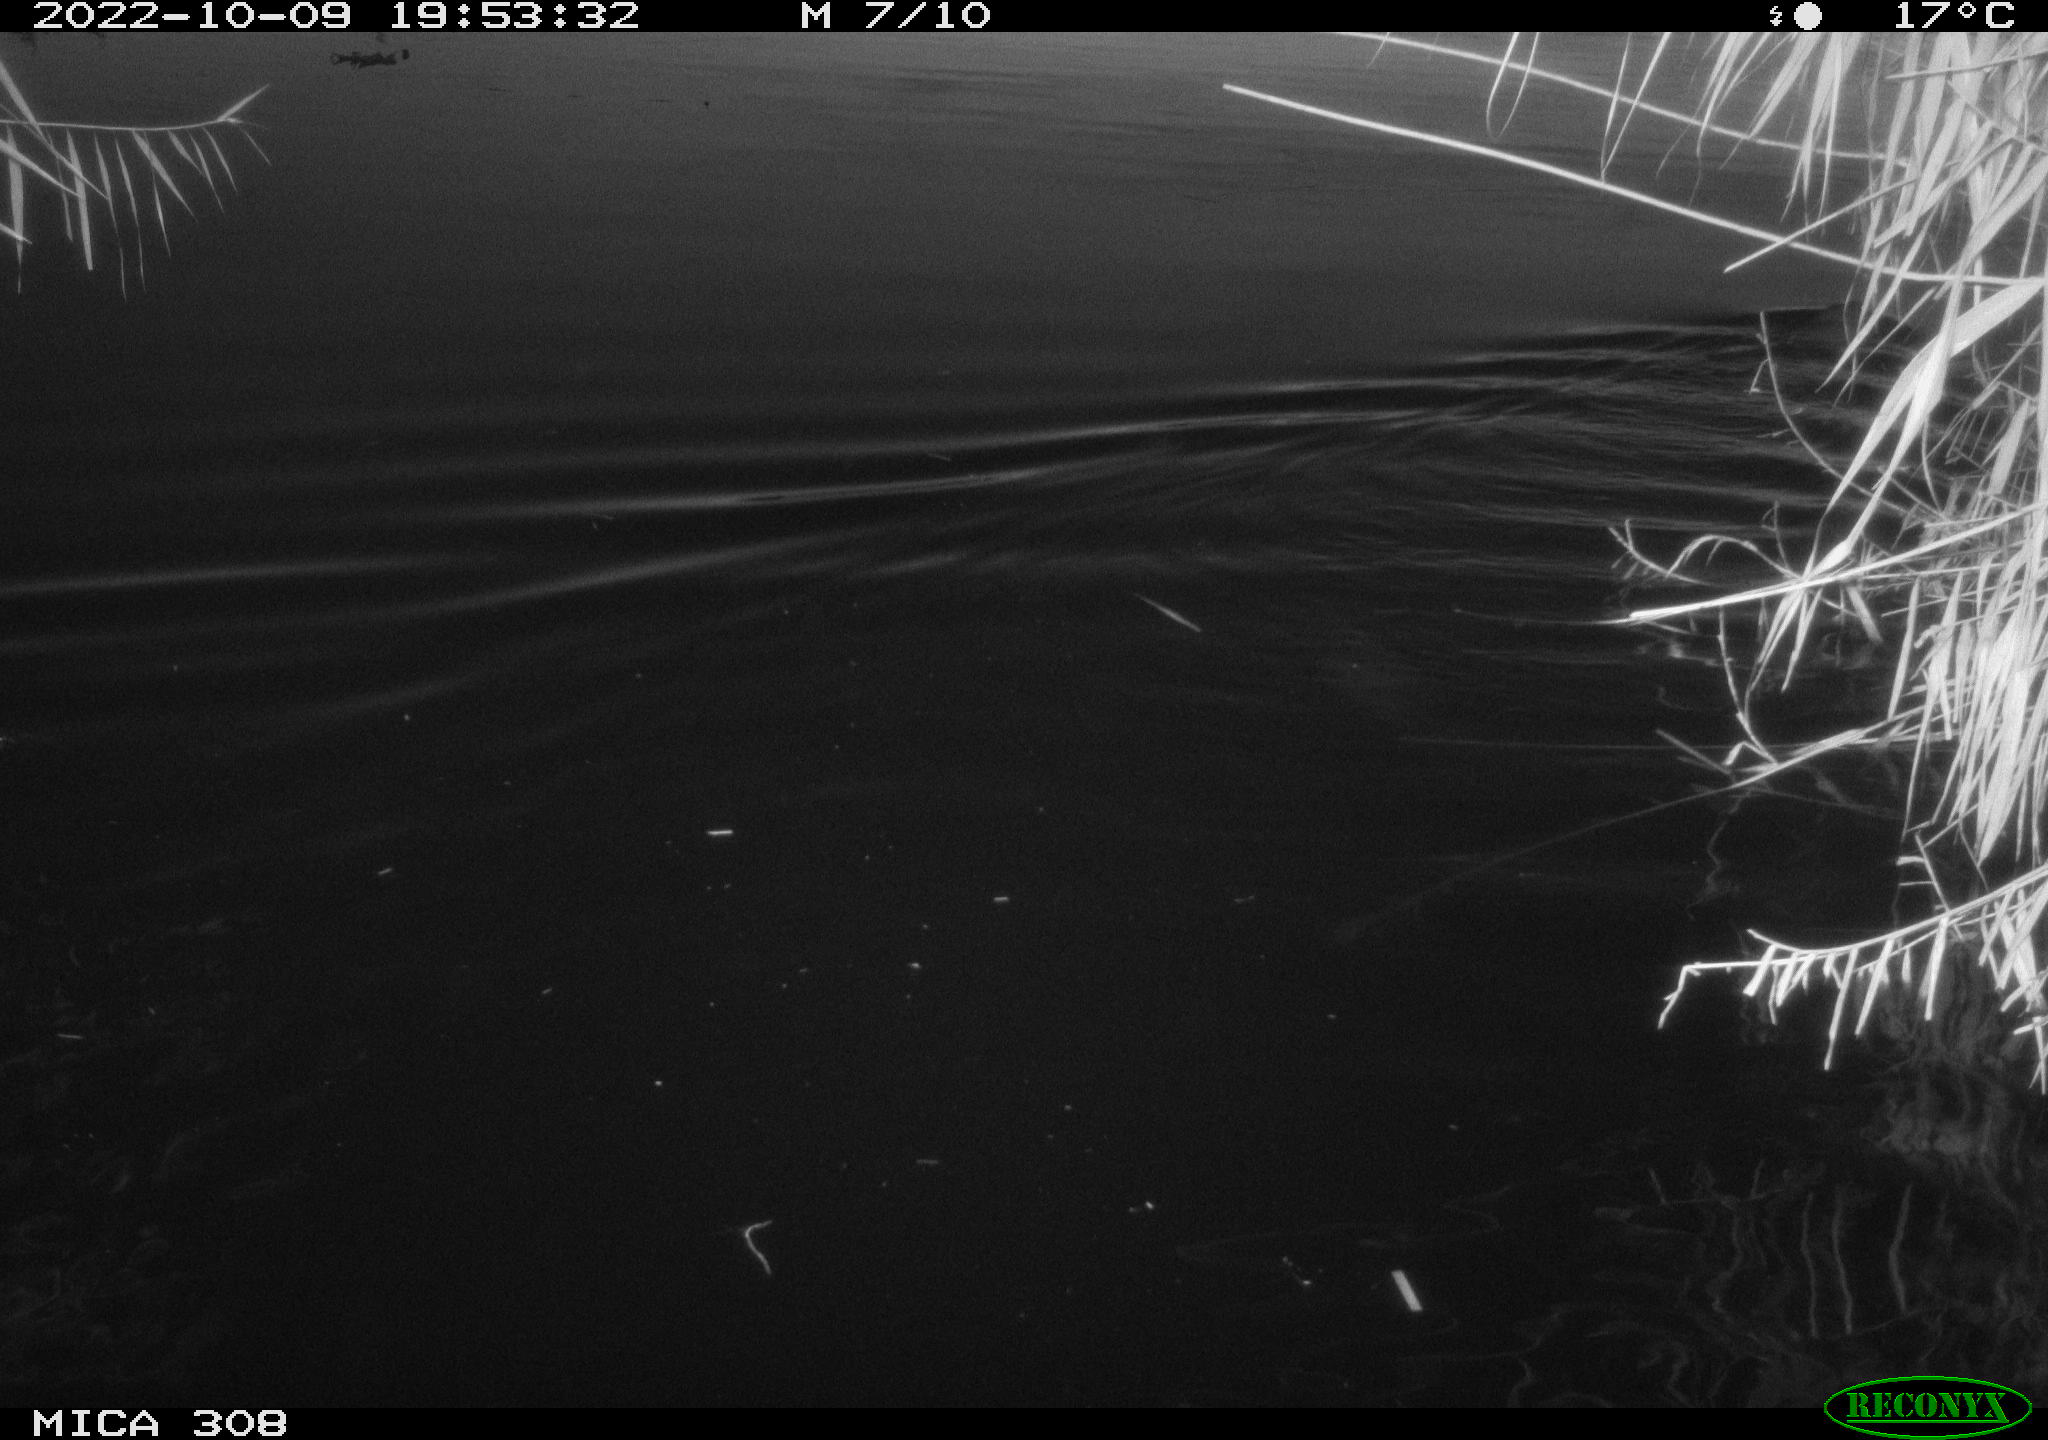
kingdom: Animalia
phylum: Chordata
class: Mammalia
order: Rodentia
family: Cricetidae
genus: Ondatra
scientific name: Ondatra zibethicus
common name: Muskrat
